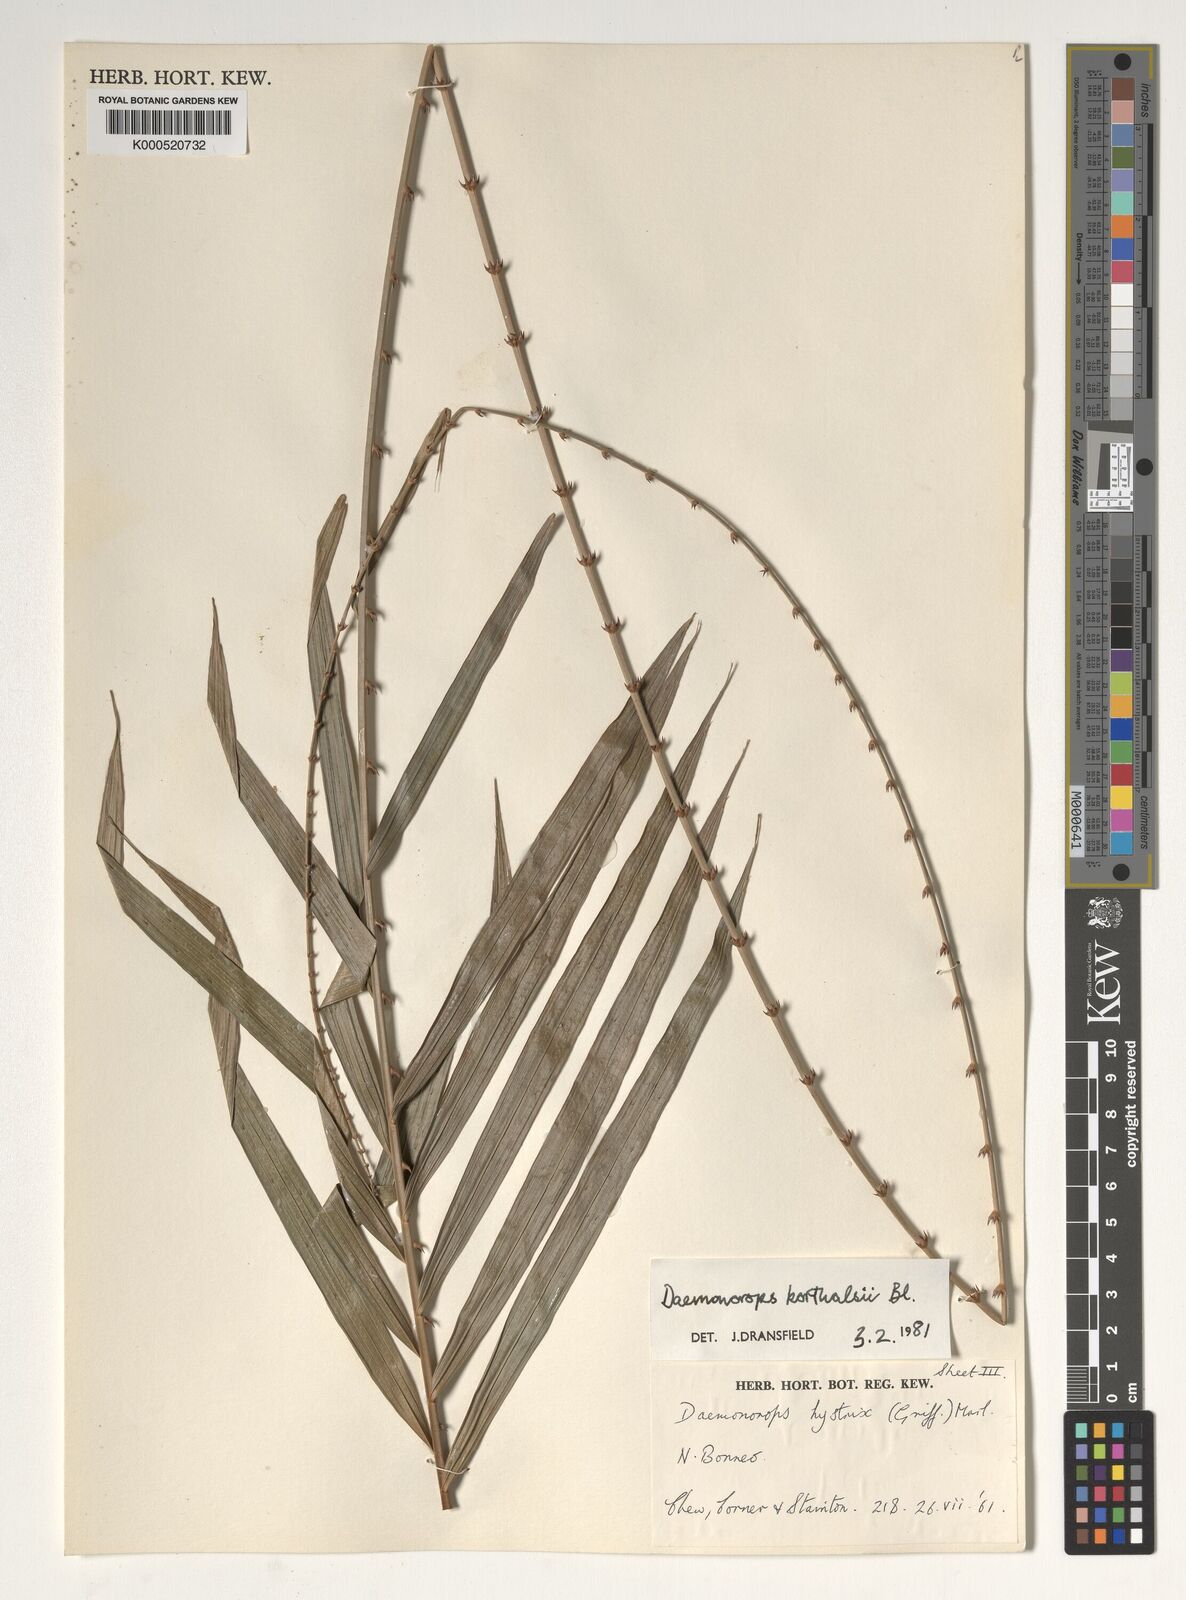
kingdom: Plantae
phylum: Tracheophyta
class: Liliopsida
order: Arecales
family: Arecaceae
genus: Calamus
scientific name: Calamus hirsutus
